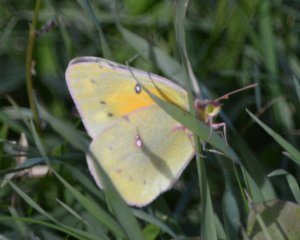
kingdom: Animalia
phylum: Arthropoda
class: Insecta
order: Lepidoptera
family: Pieridae
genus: Colias
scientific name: Colias eurytheme
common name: Orange Sulphur
